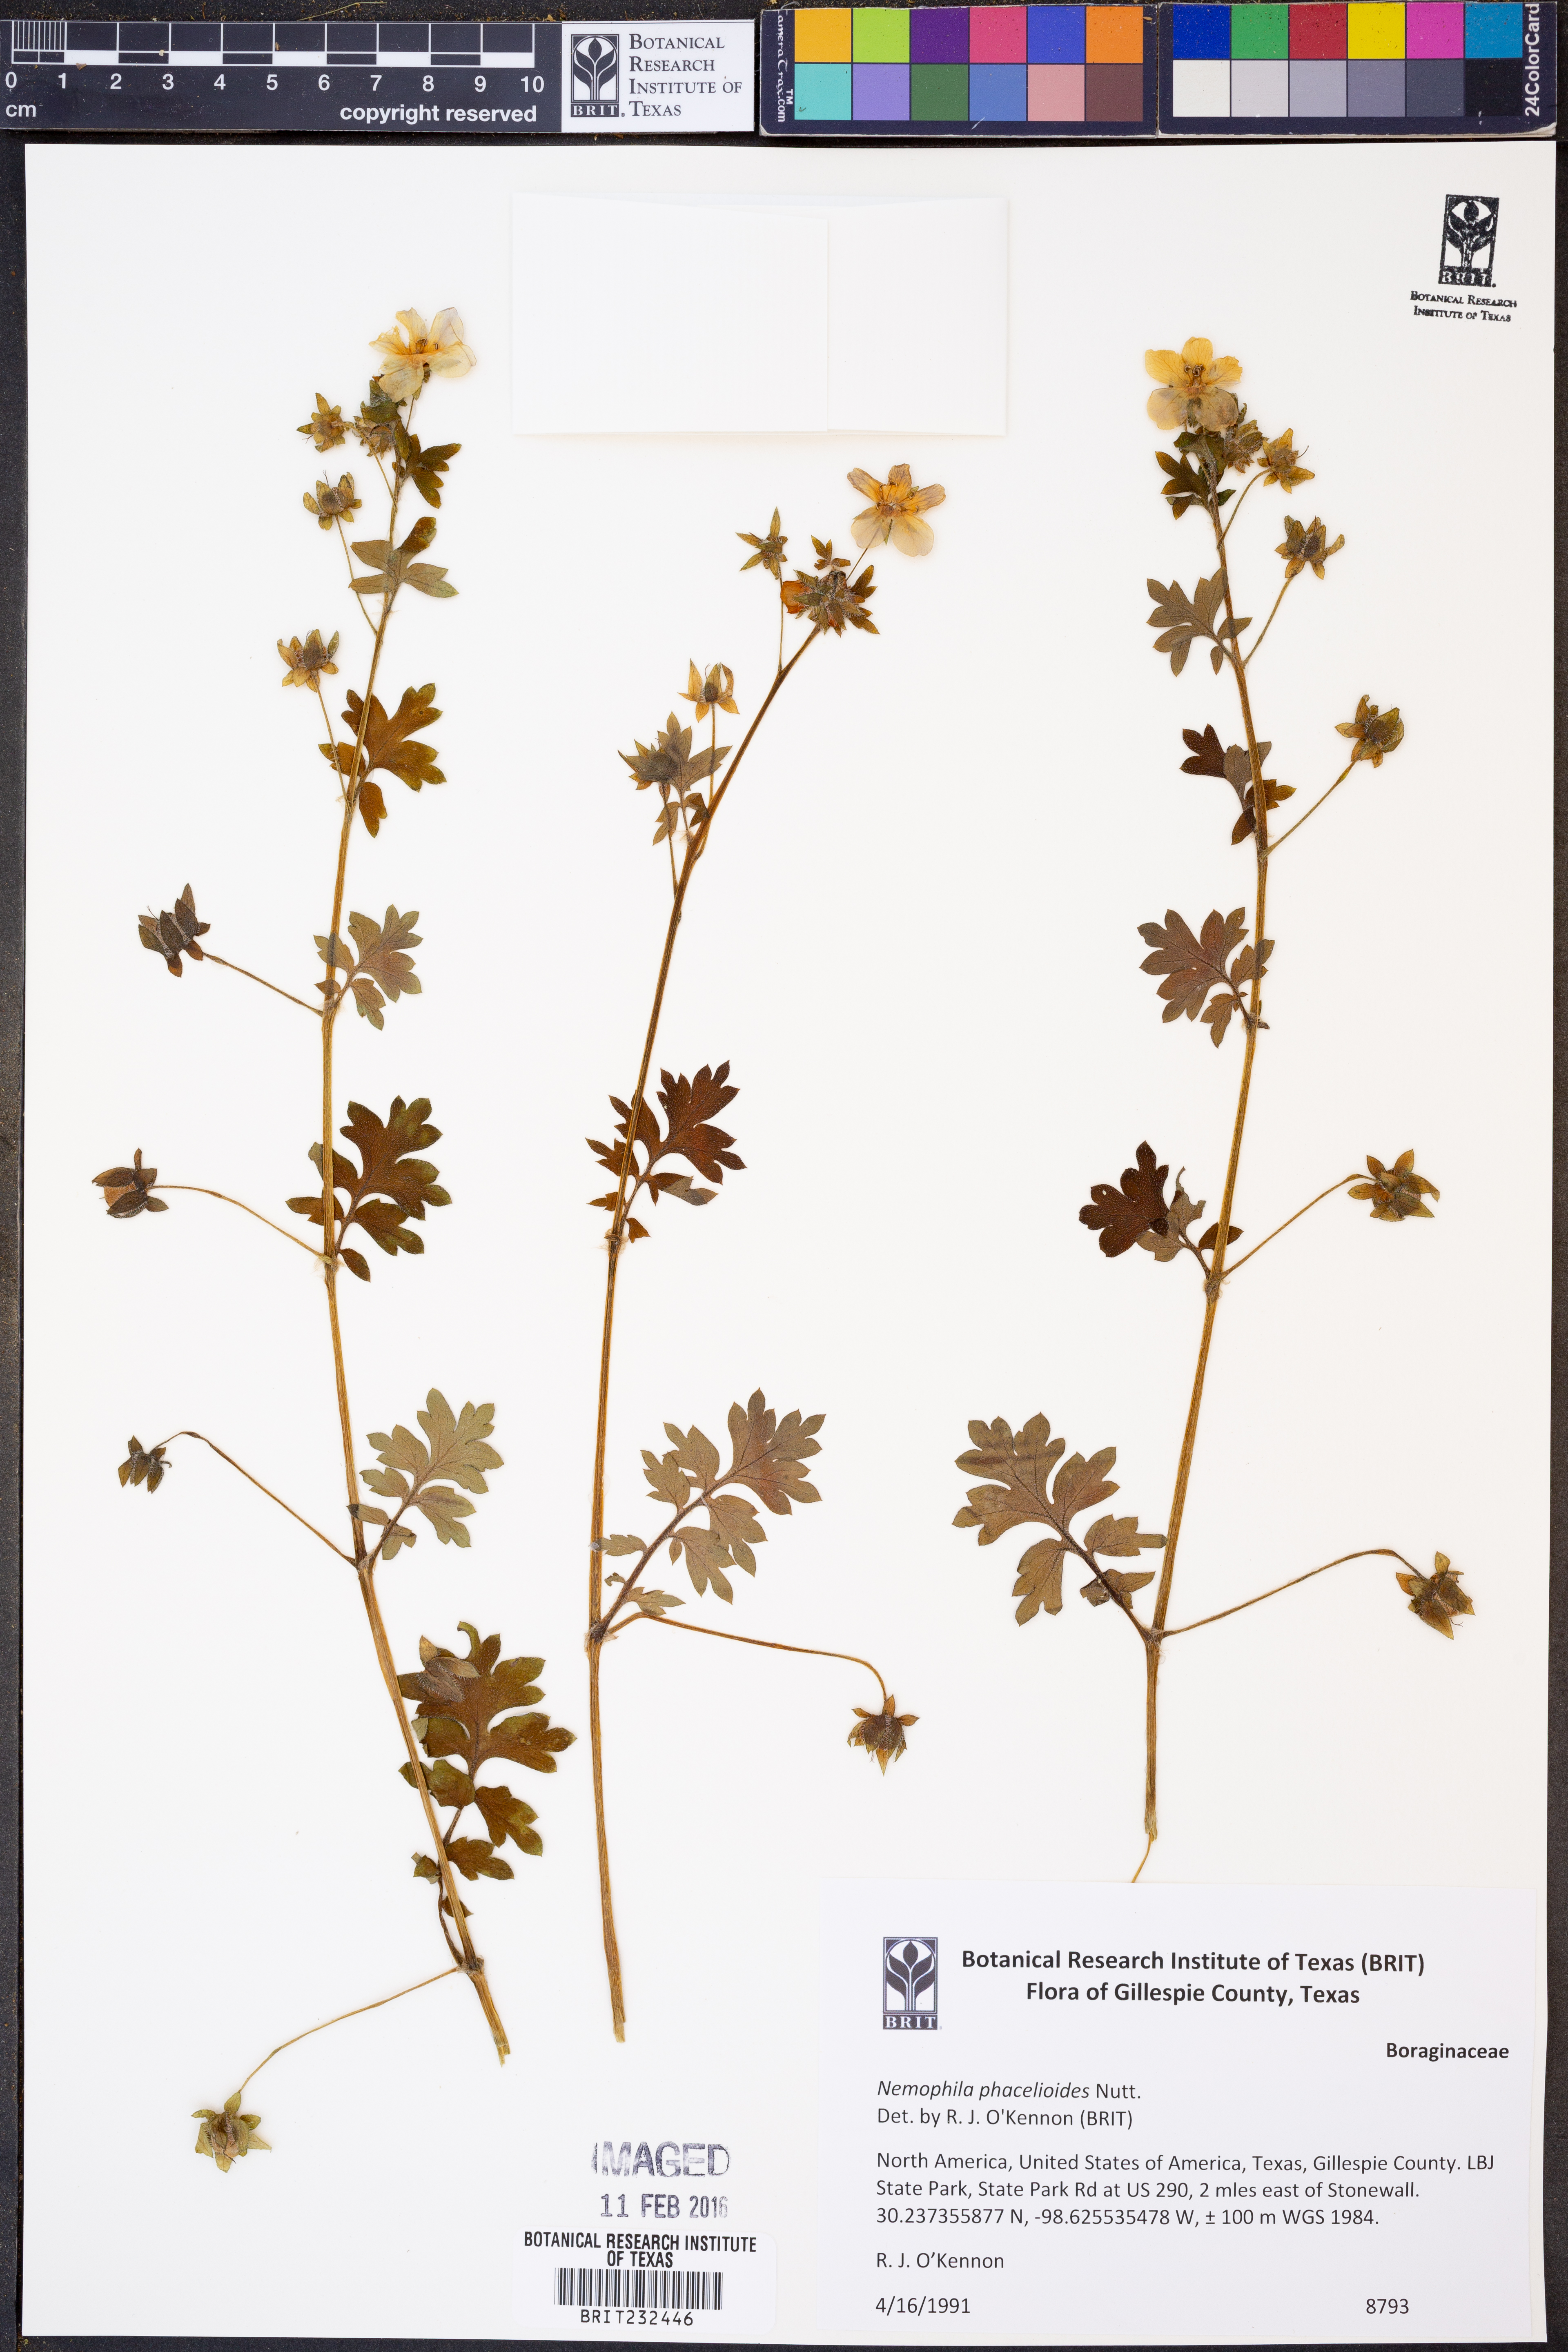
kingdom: Plantae
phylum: Tracheophyta
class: Magnoliopsida
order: Boraginales
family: Hydrophyllaceae
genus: Nemophila
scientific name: Nemophila phacelioides
